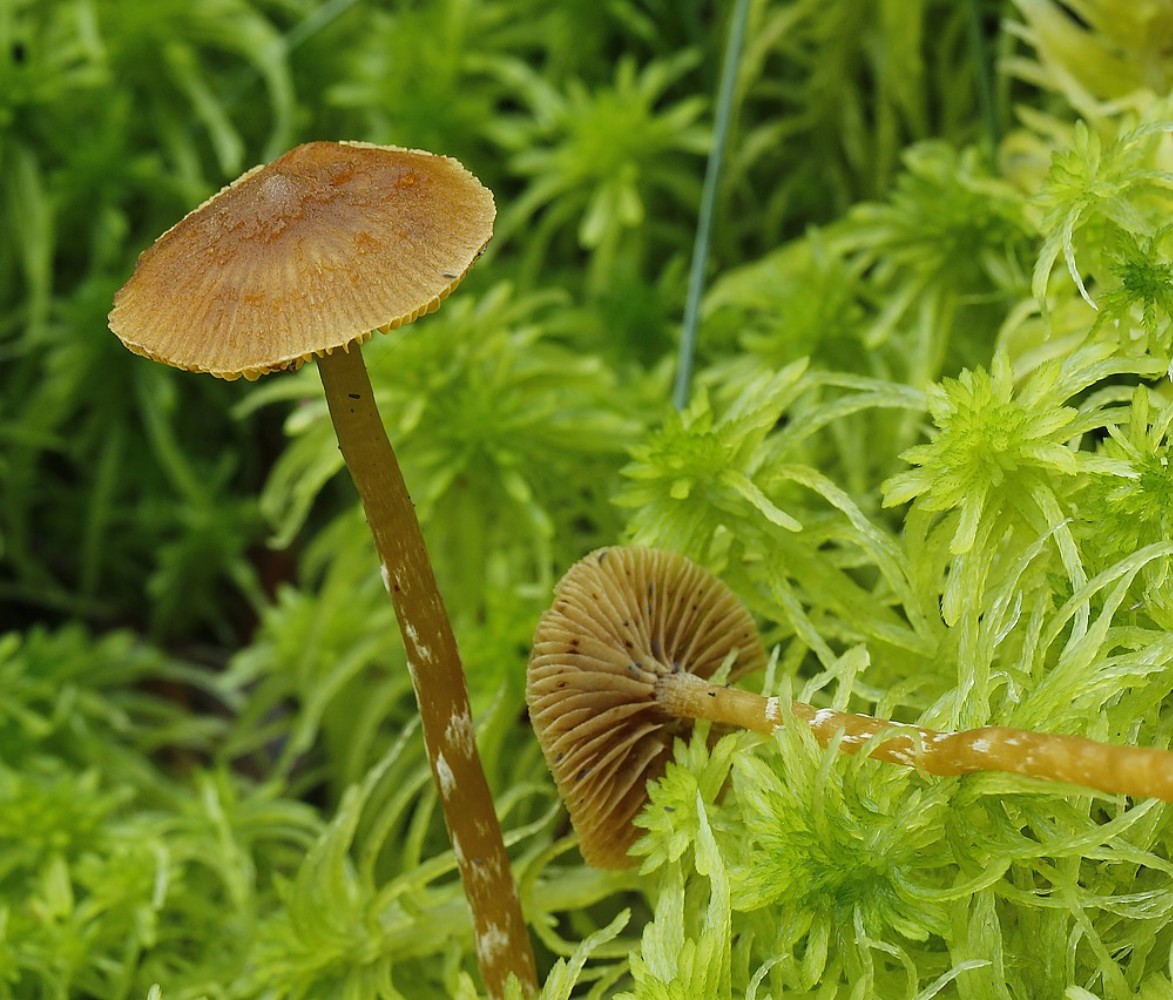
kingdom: Fungi
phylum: Basidiomycota
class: Agaricomycetes
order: Agaricales
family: Hymenogastraceae
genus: Galerina
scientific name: Galerina paludosa
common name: mose-hjelmhat
